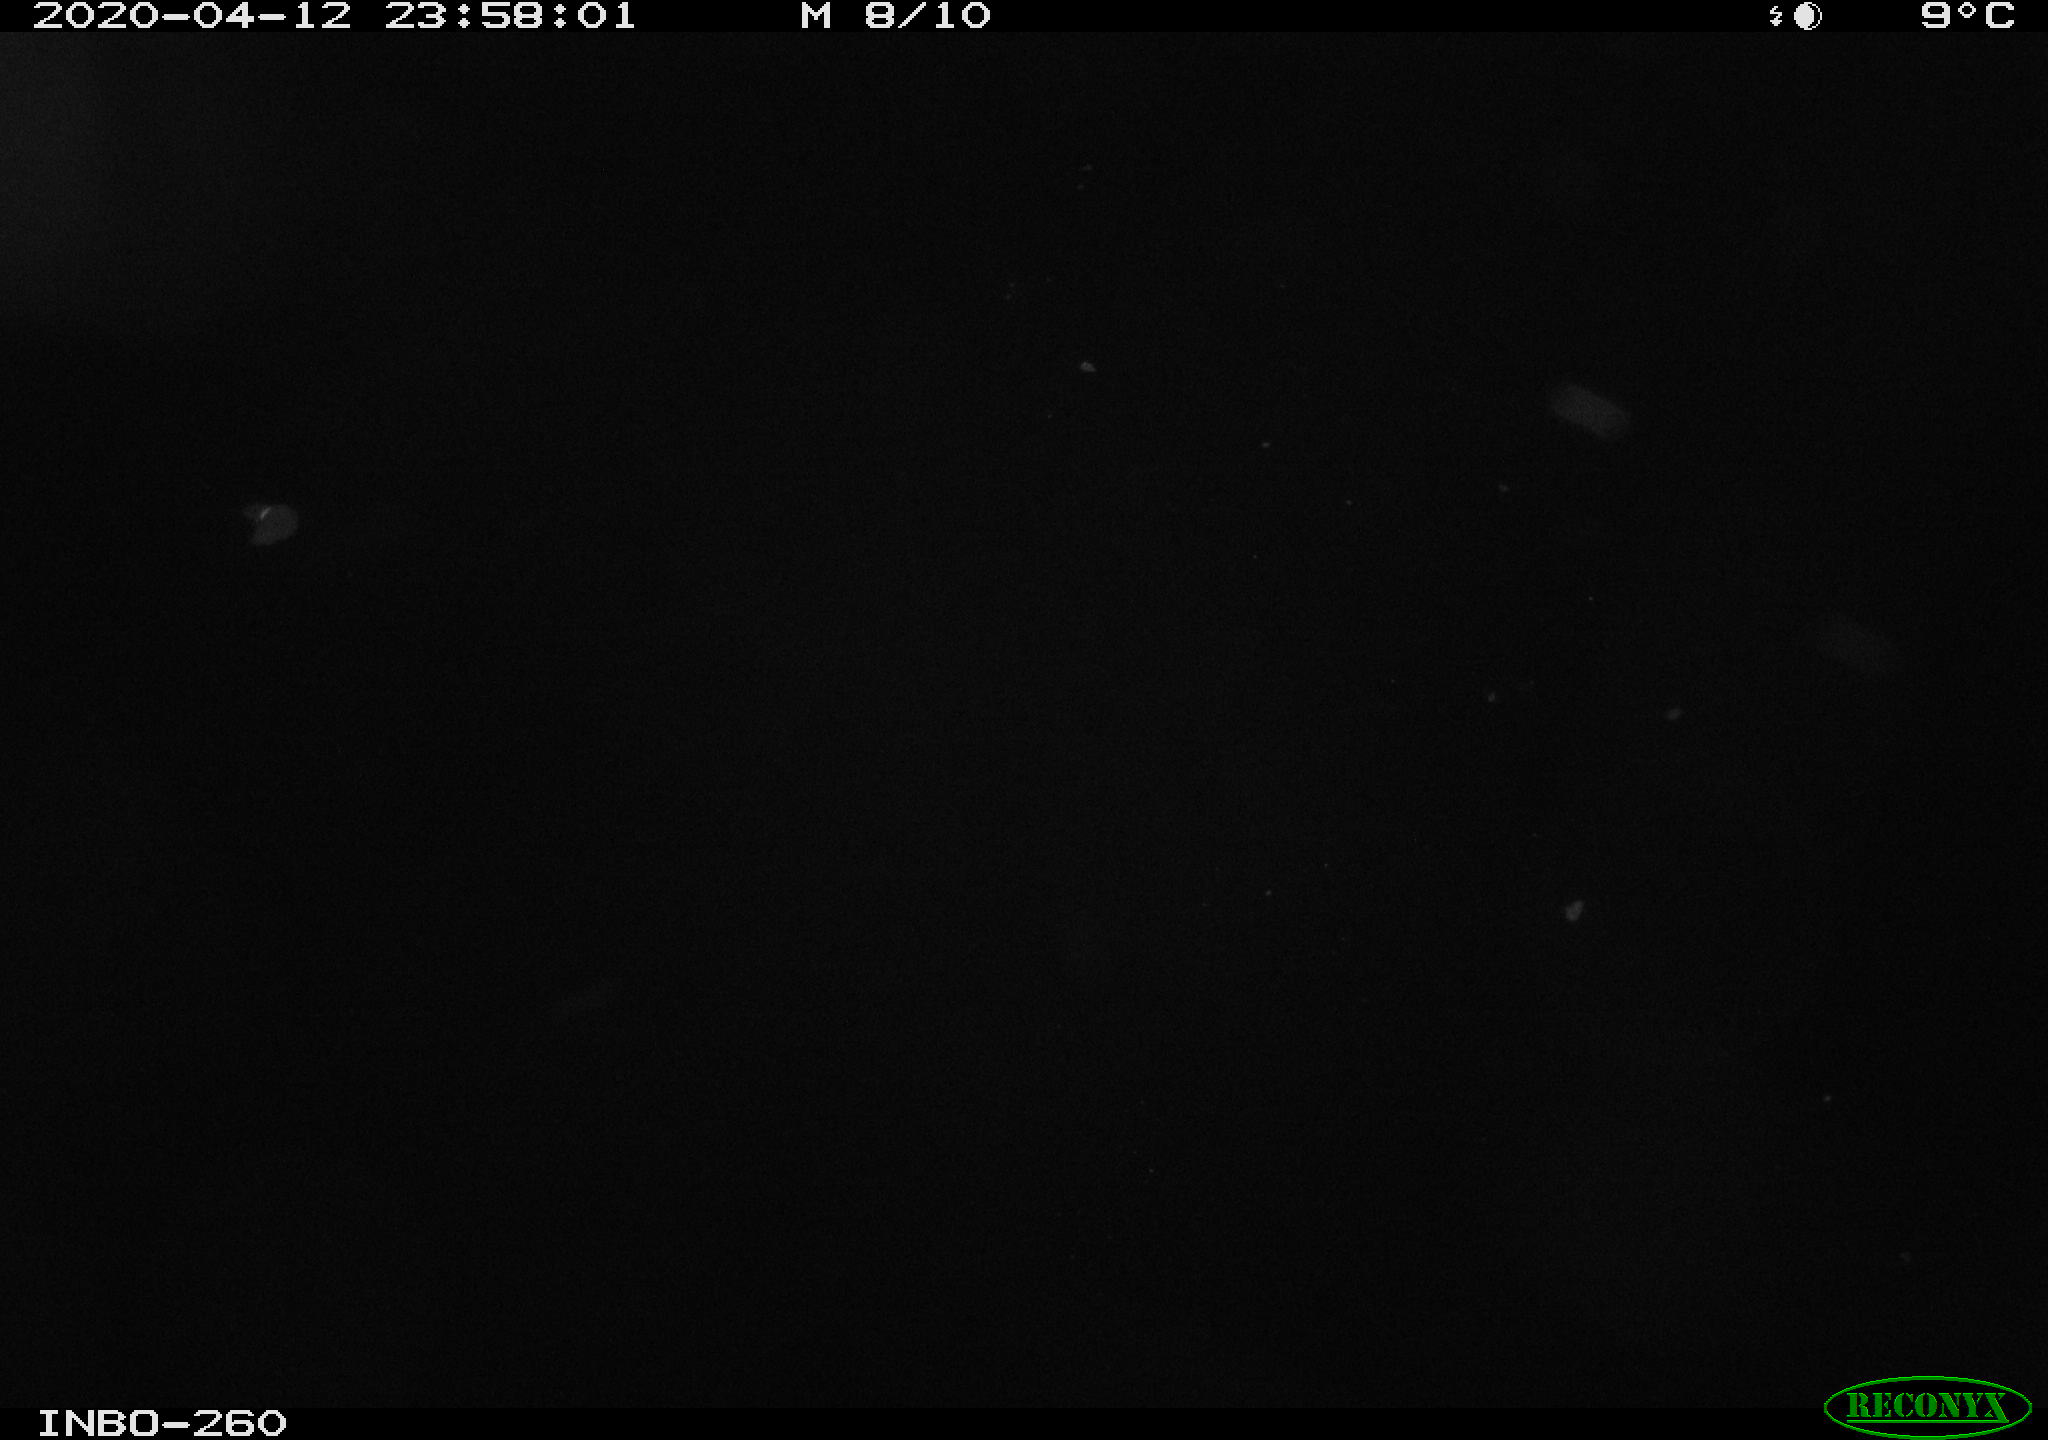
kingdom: Animalia
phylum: Chordata
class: Aves
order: Anseriformes
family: Anatidae
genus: Anas
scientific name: Anas platyrhynchos
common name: Mallard
